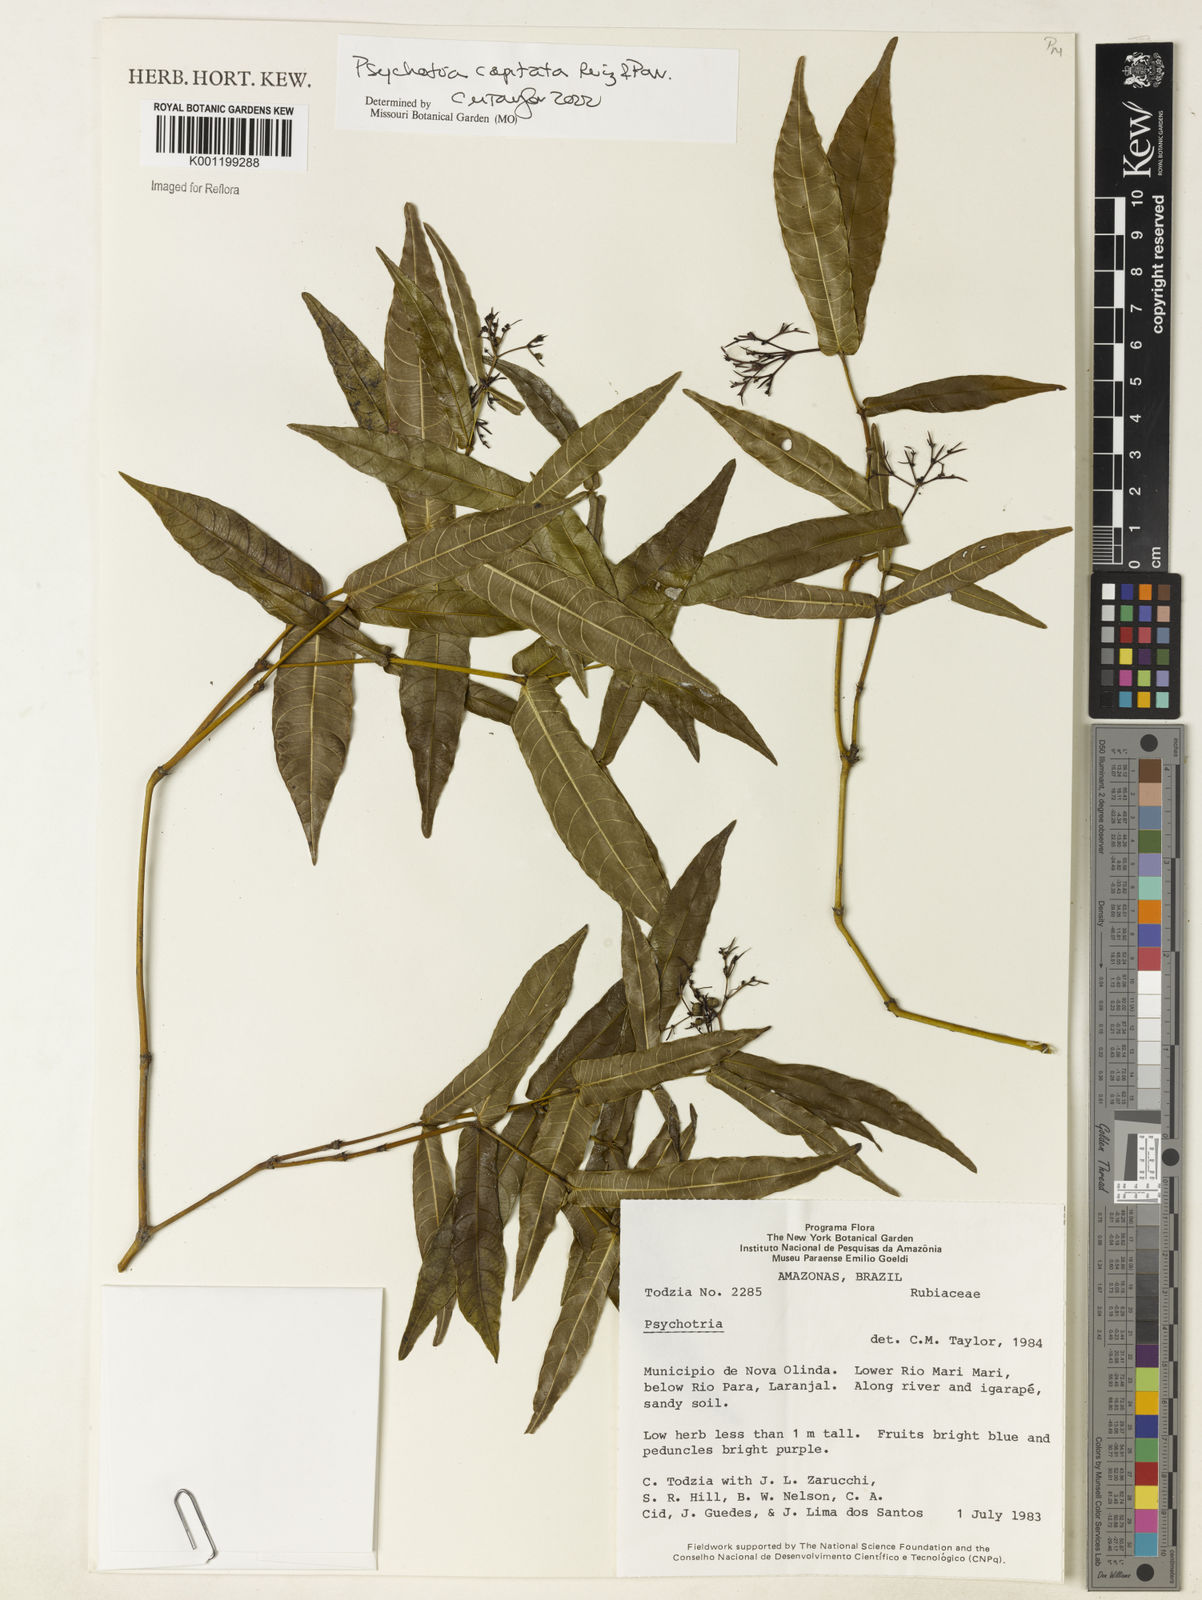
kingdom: Plantae
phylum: Tracheophyta
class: Magnoliopsida
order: Gentianales
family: Rubiaceae
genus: Palicourea
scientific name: Palicourea violacea
